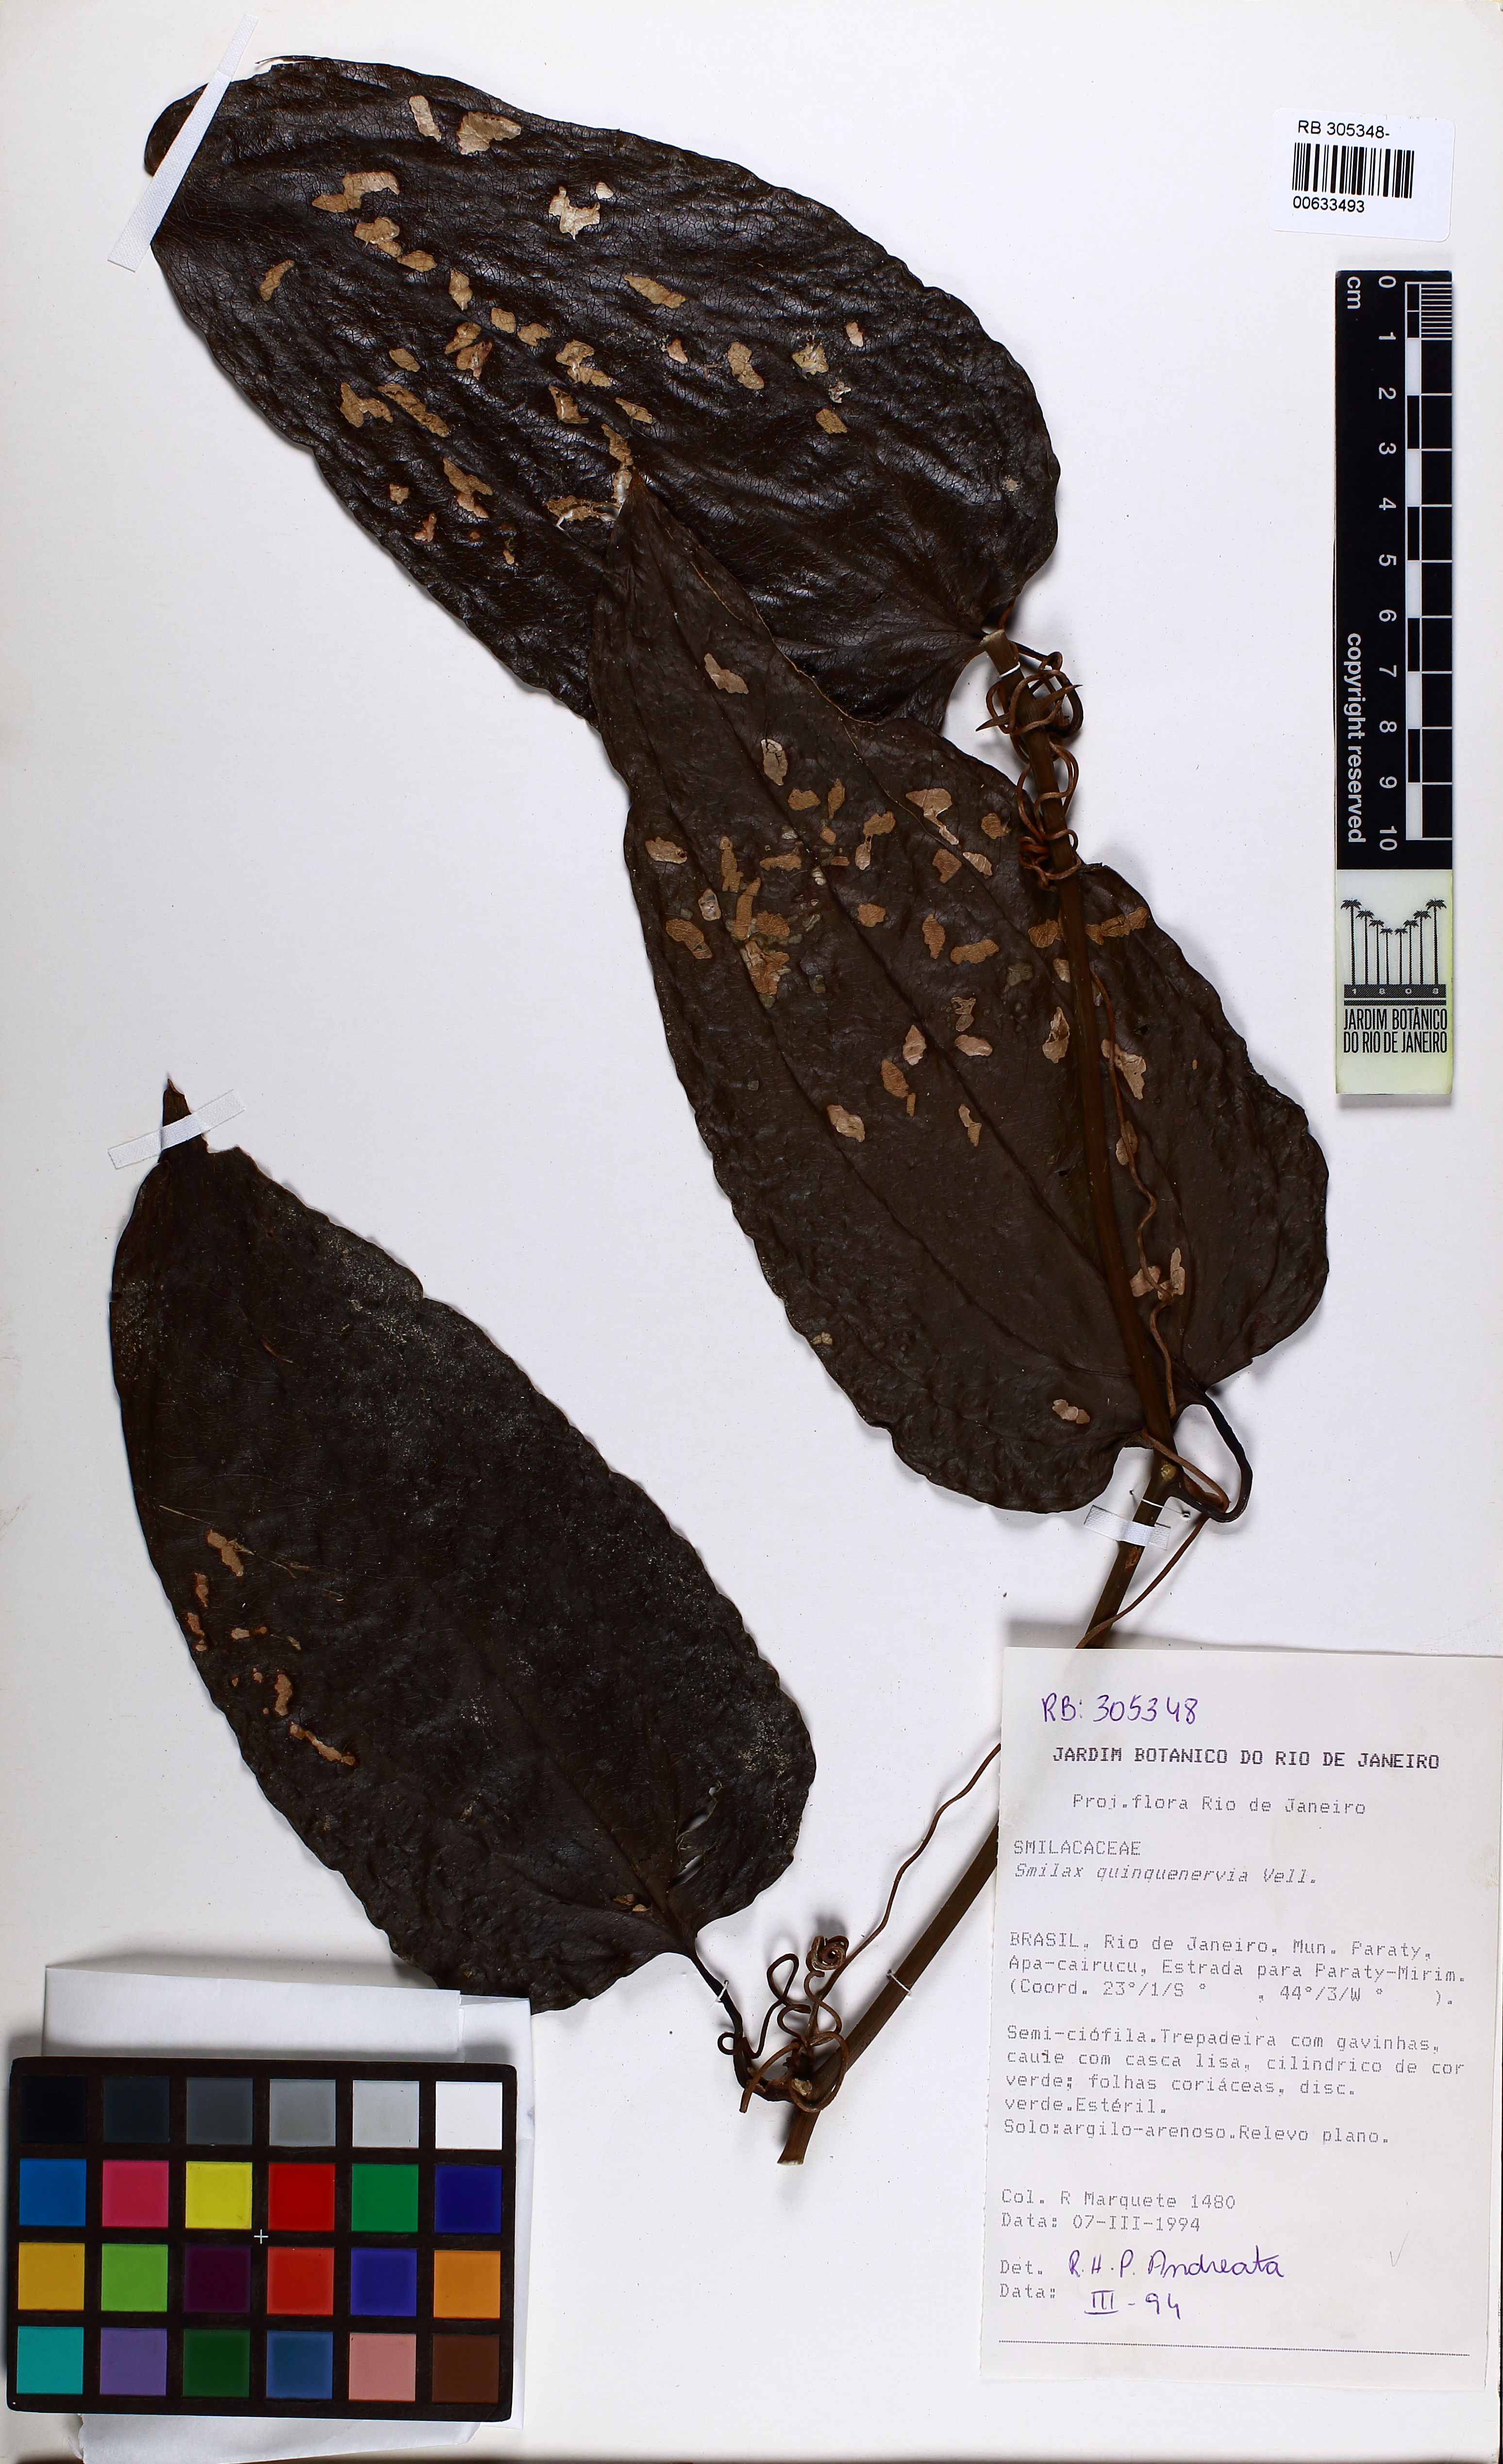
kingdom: Plantae
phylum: Tracheophyta
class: Liliopsida
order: Liliales
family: Smilacaceae
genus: Smilax
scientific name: Smilax quinquenervia
